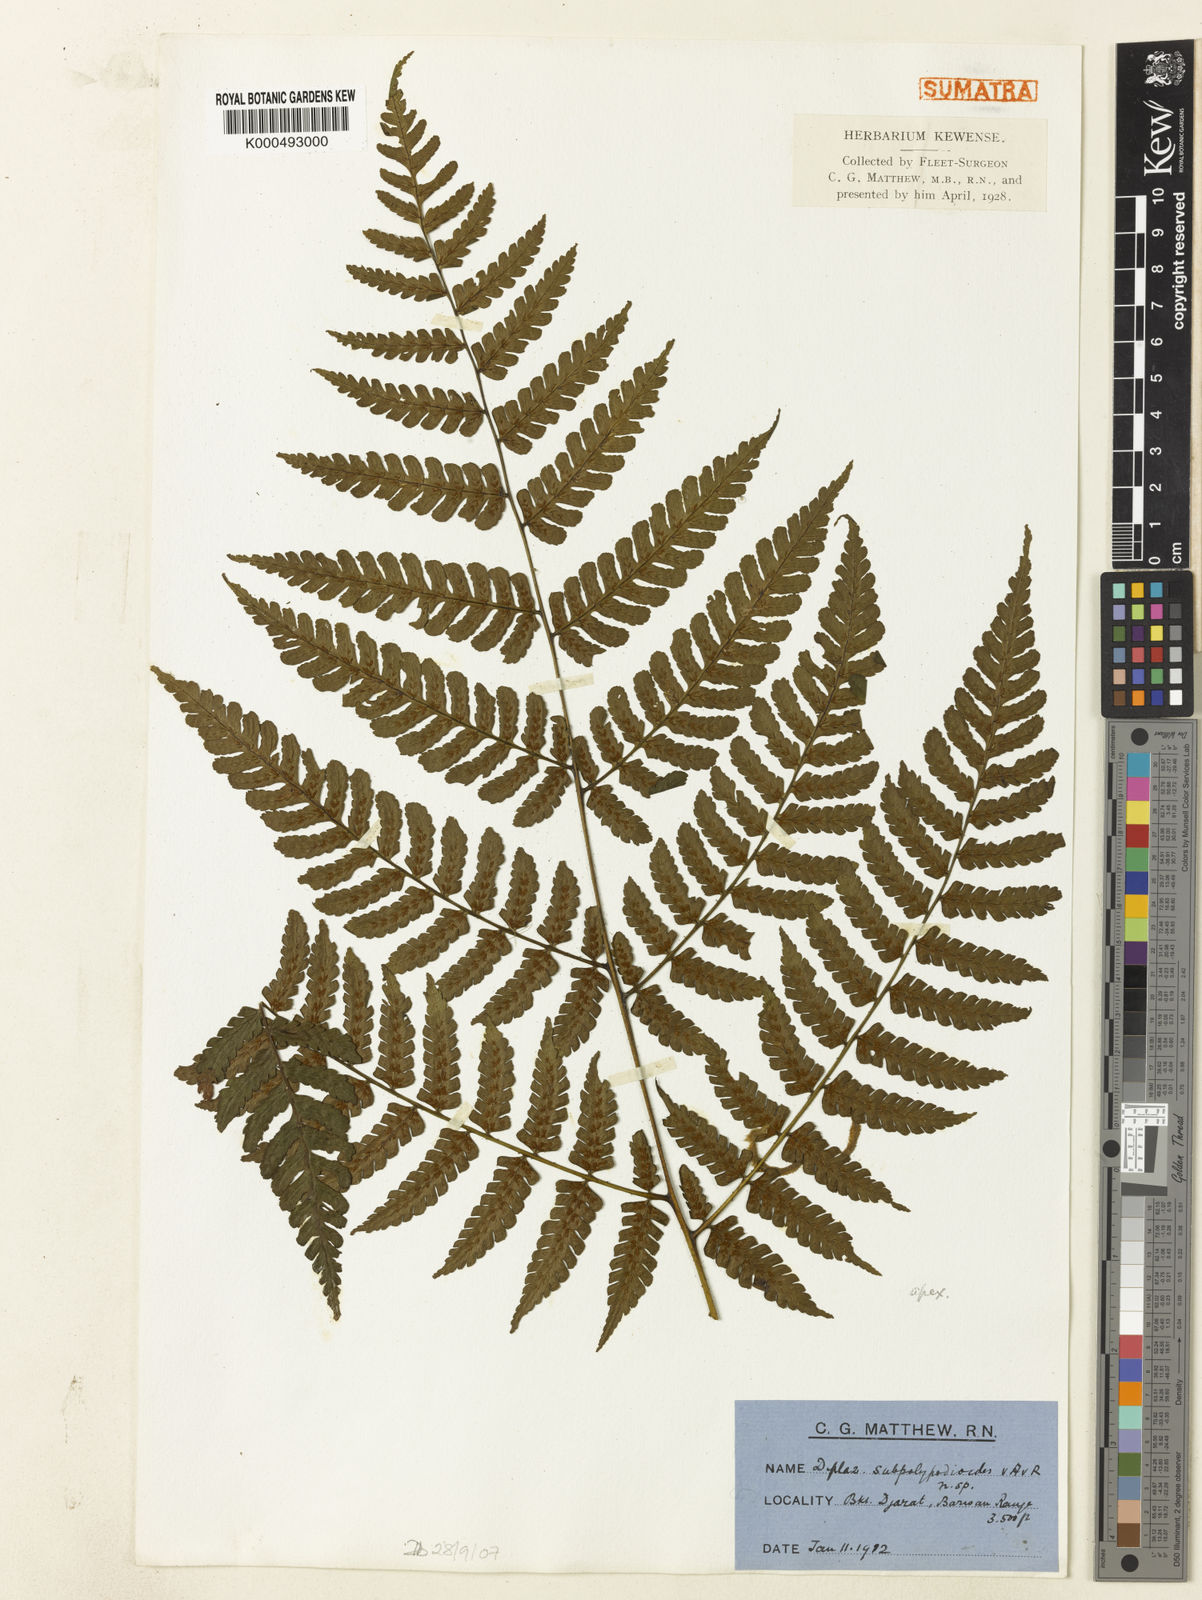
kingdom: Plantae
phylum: Tracheophyta
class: Polypodiopsida
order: Polypodiales
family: Athyriaceae
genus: Diplazium
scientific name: Diplazium subpolypodioides
